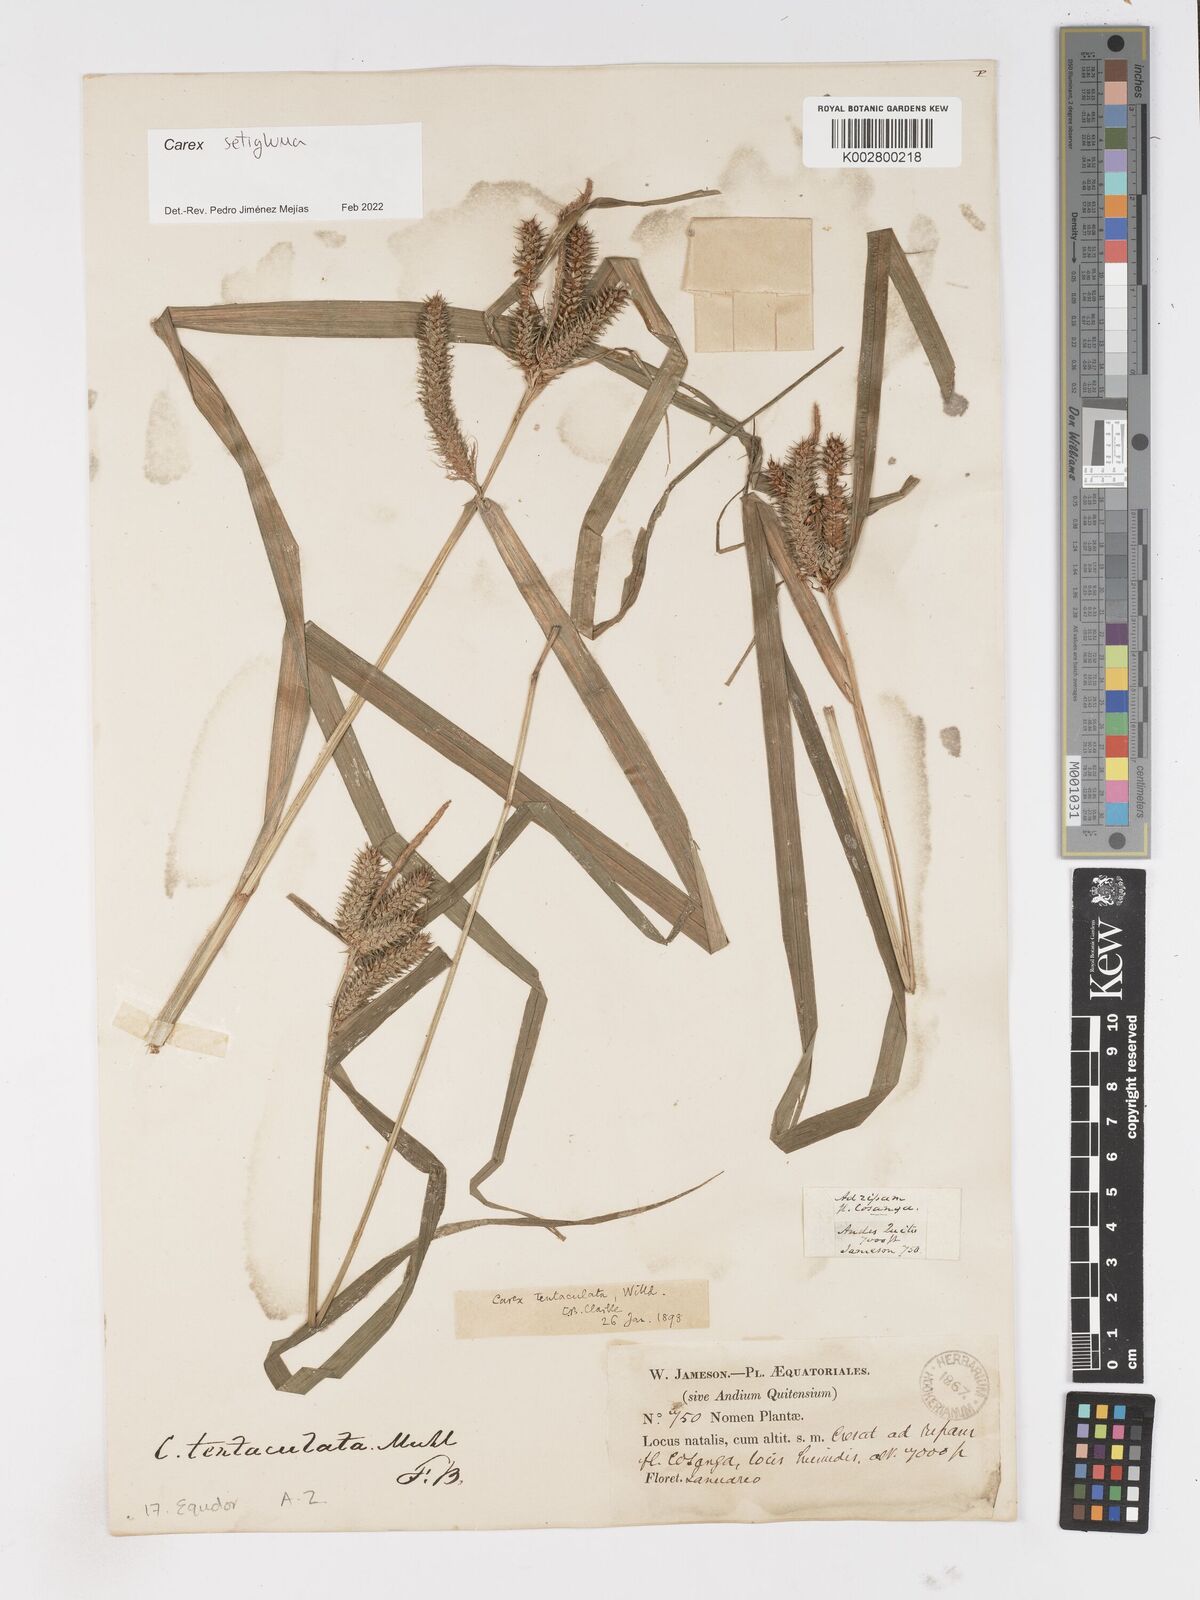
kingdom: Plantae
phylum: Tracheophyta
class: Liliopsida
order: Poales
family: Cyperaceae
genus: Carex
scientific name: Carex setigluma
